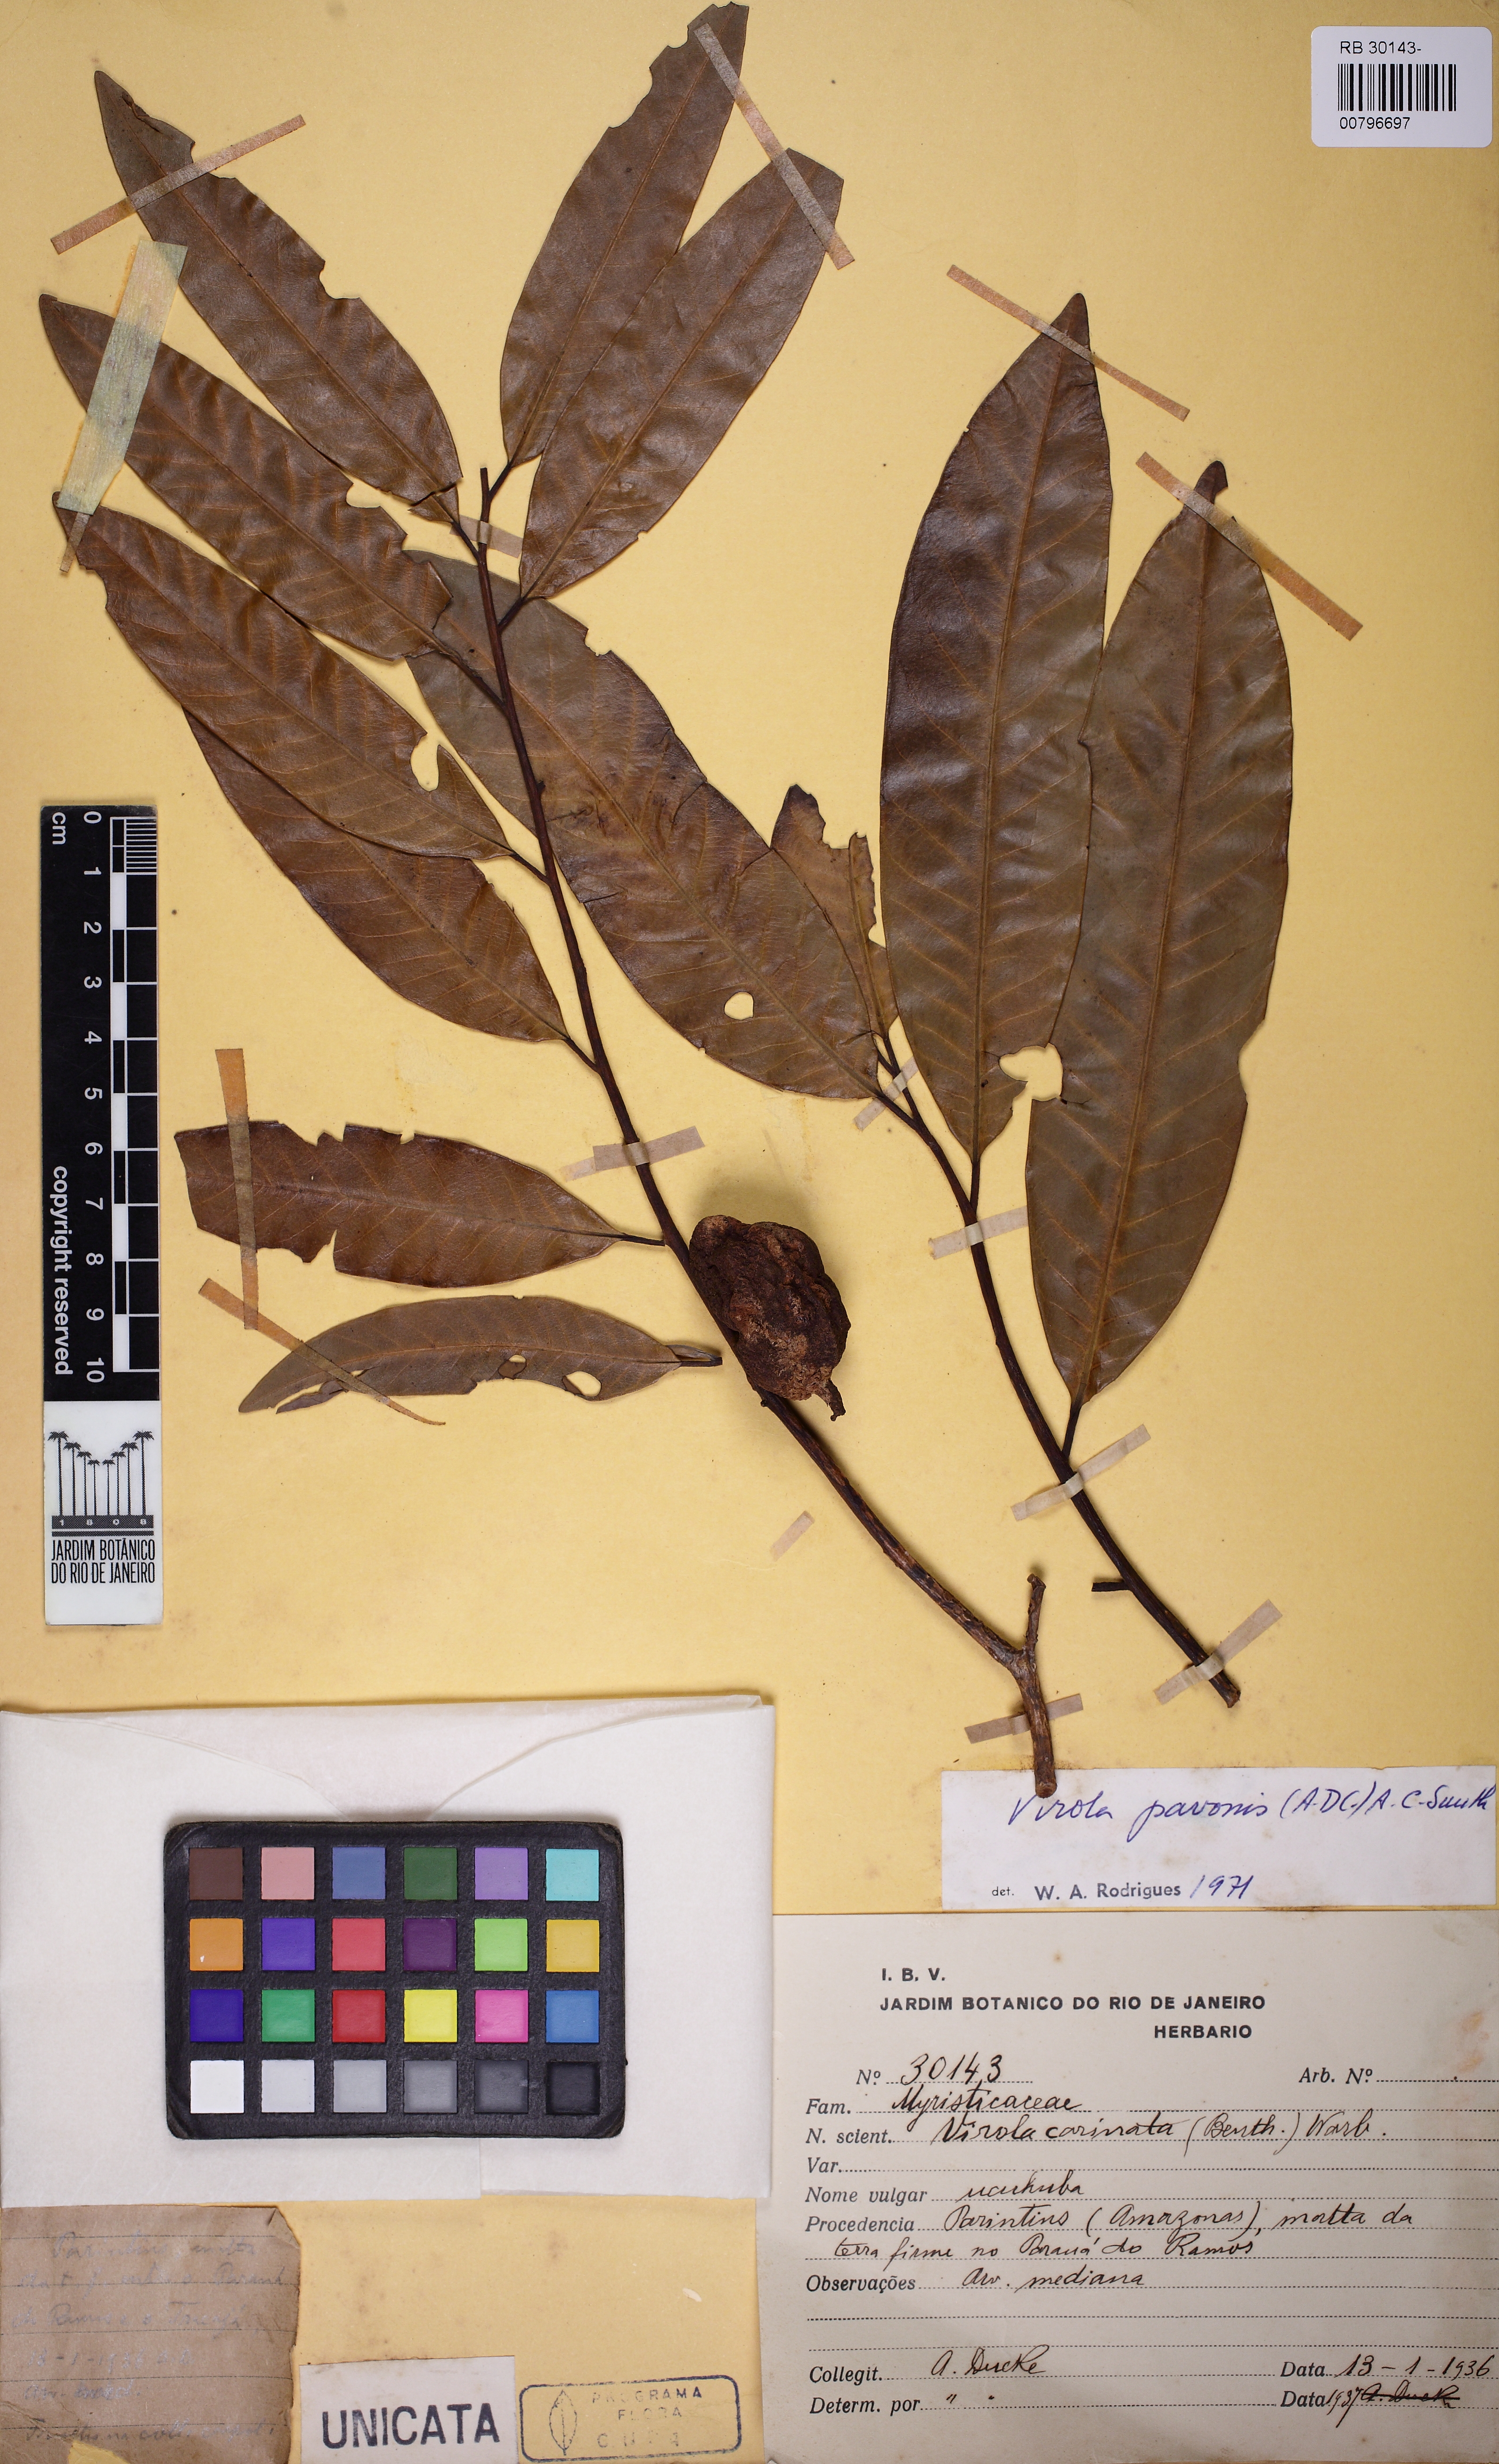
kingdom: Plantae
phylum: Tracheophyta
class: Magnoliopsida
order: Magnoliales
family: Myristicaceae
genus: Virola
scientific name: Virola pavonis
